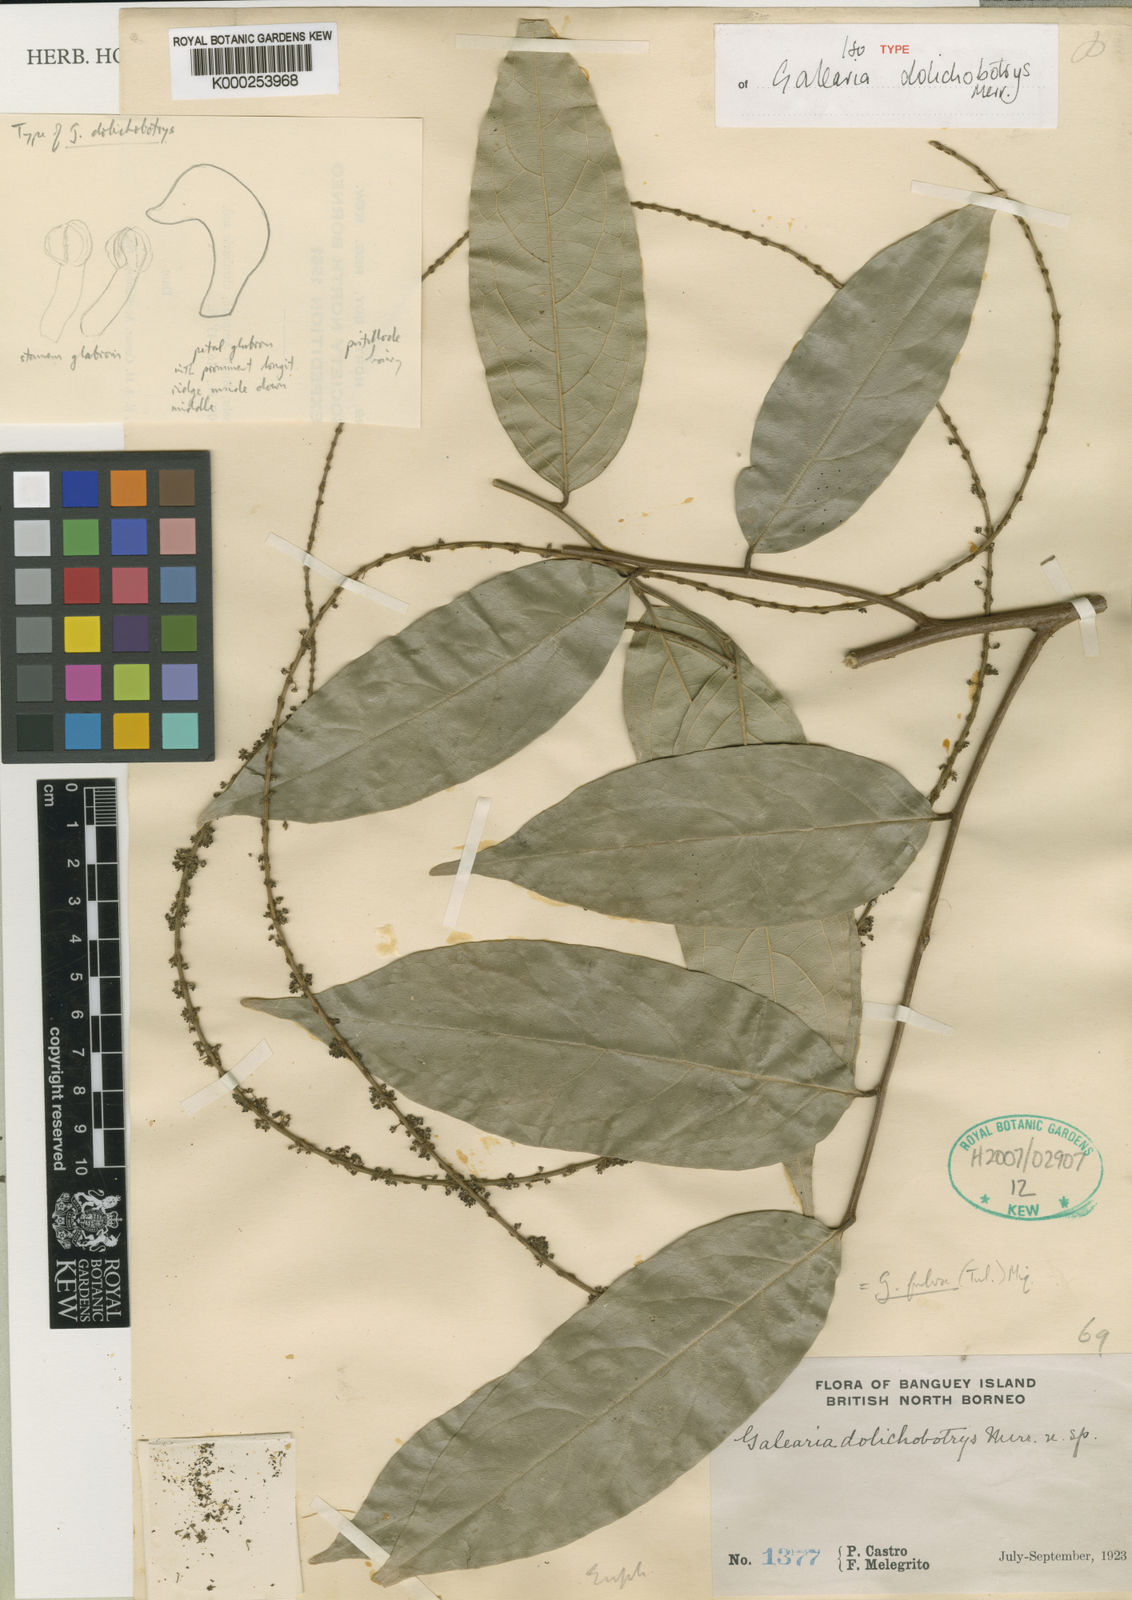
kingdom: Plantae
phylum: Tracheophyta
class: Magnoliopsida
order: Malpighiales
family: Pandaceae
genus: Galearia
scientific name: Galearia fulva
